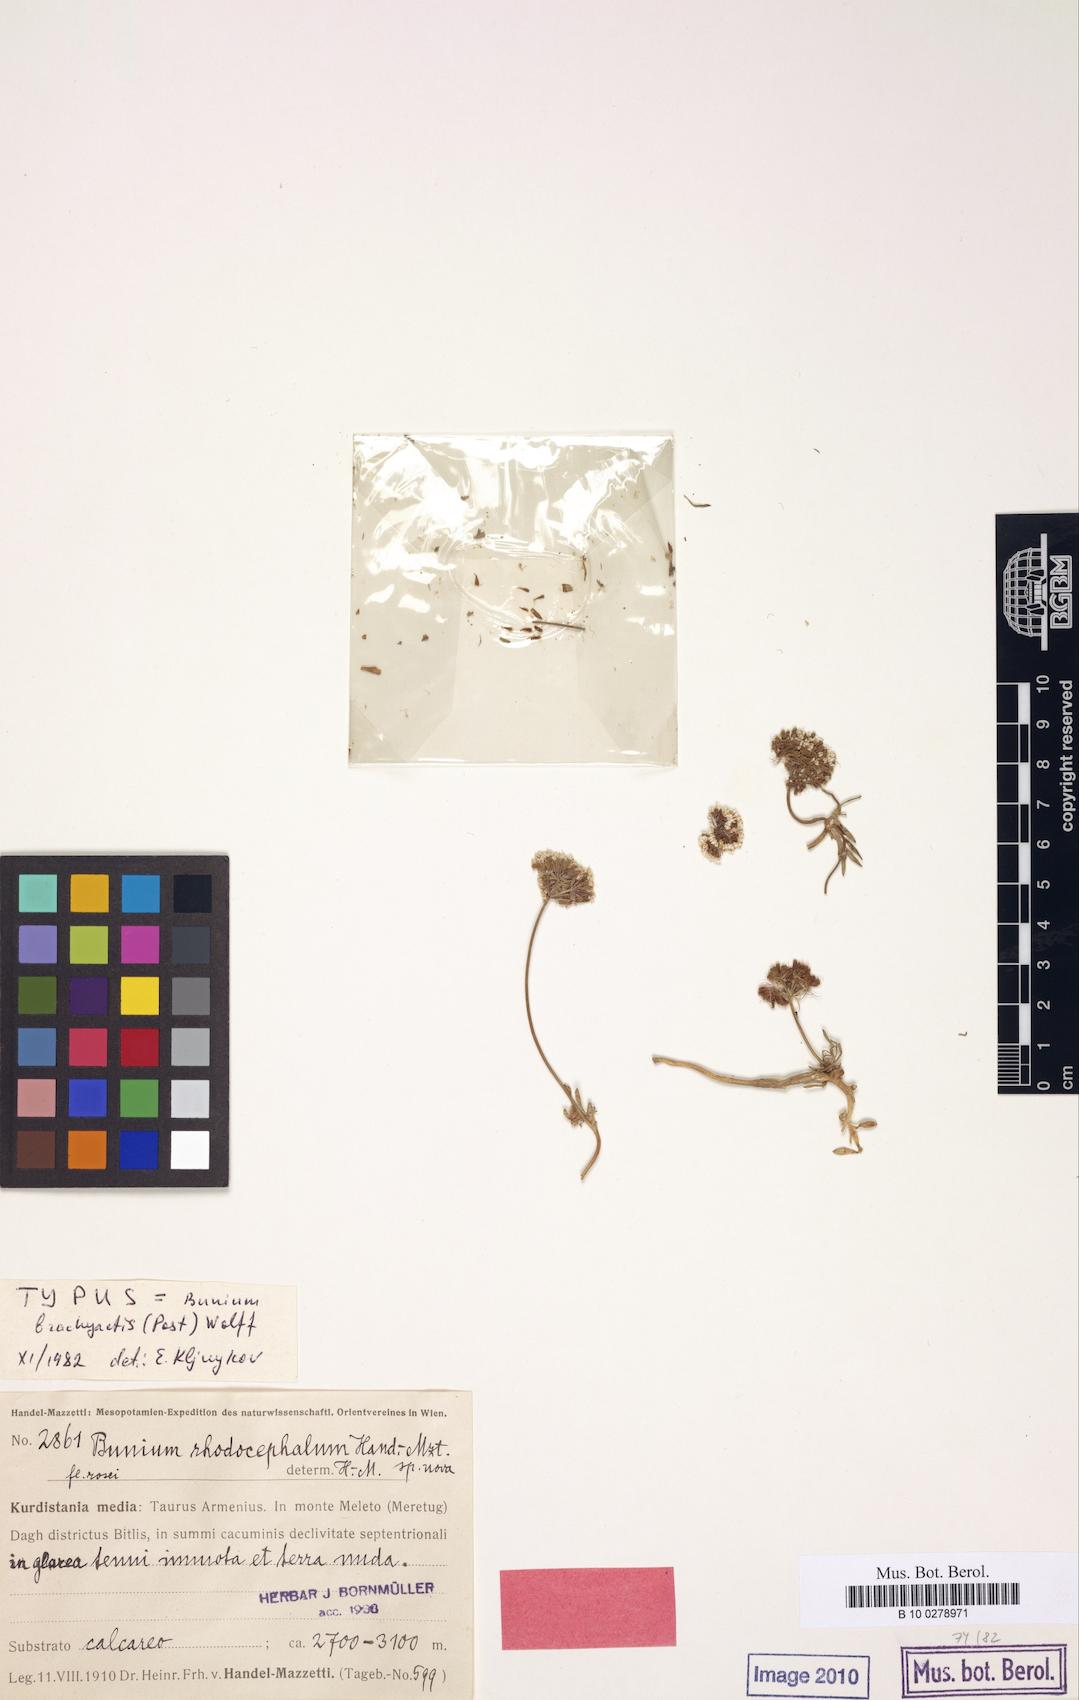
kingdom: Plantae
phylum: Tracheophyta
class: Magnoliopsida
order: Apiales
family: Apiaceae
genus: Bunium
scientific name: Bunium brachyactis
